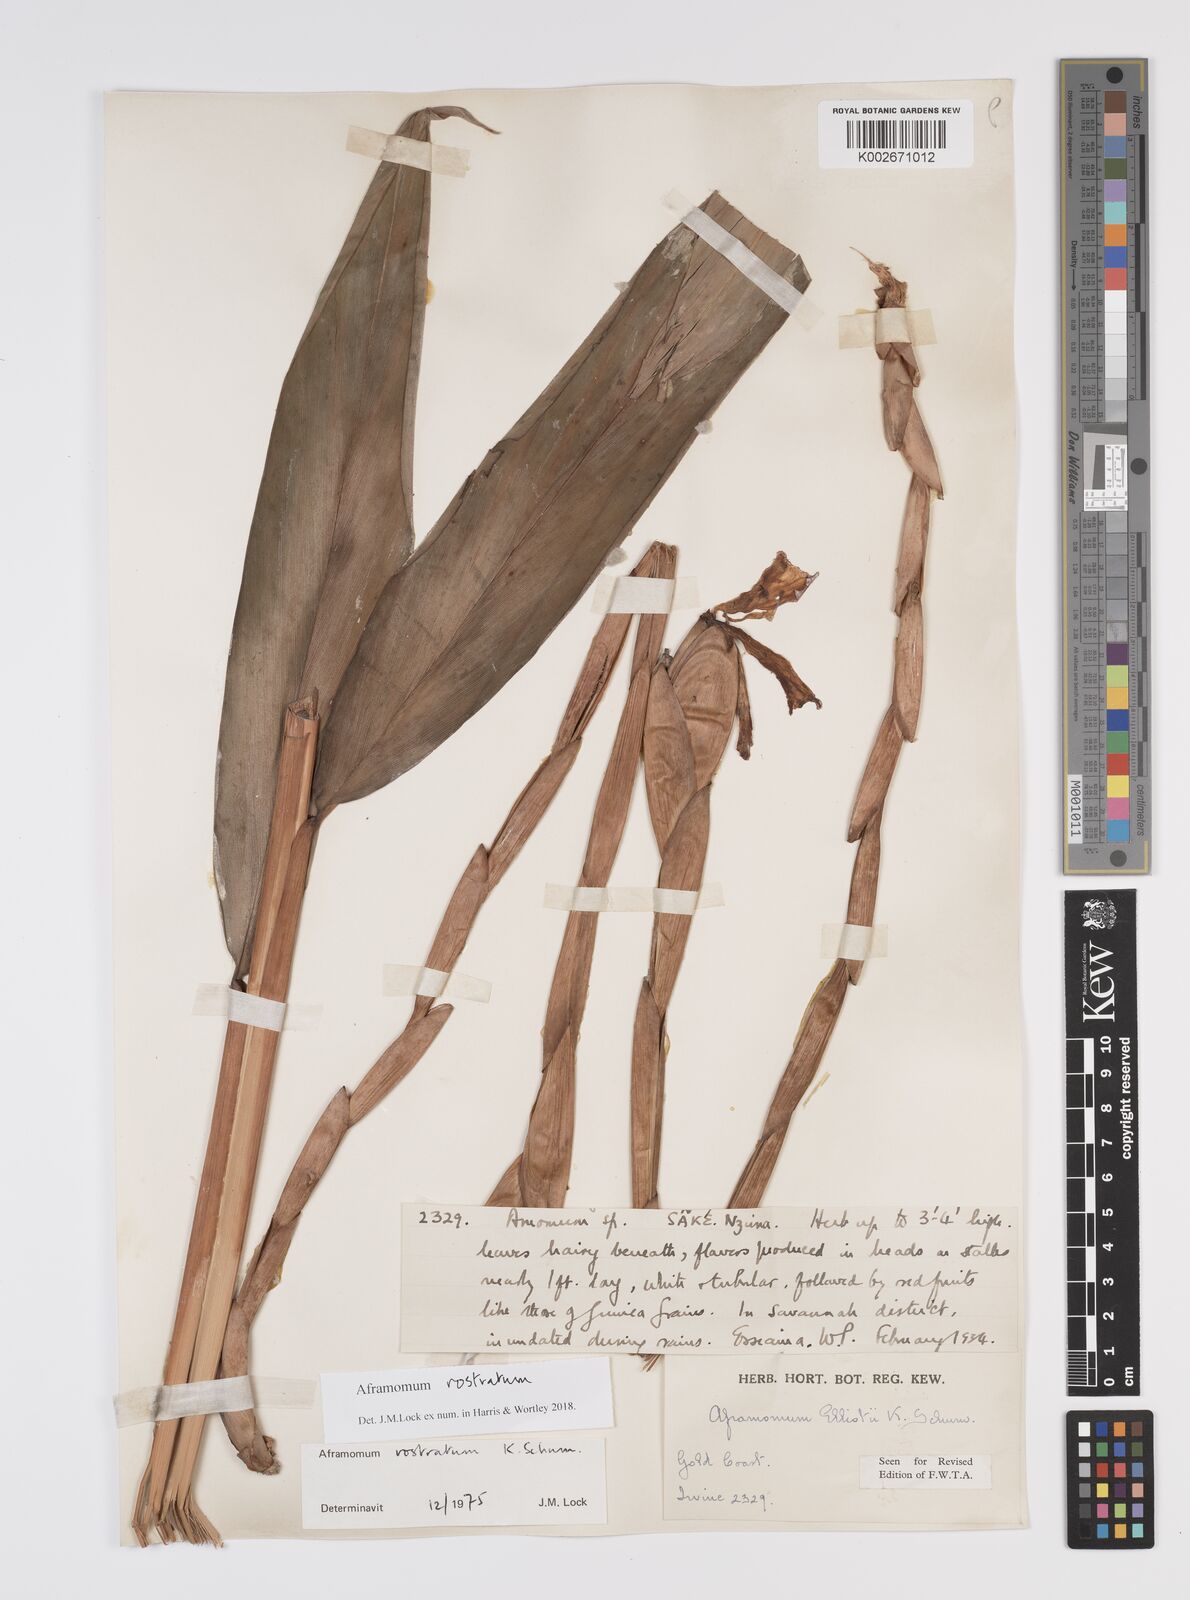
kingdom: Plantae
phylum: Tracheophyta
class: Liliopsida
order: Zingiberales
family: Zingiberaceae
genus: Aframomum
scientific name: Aframomum rostratum
